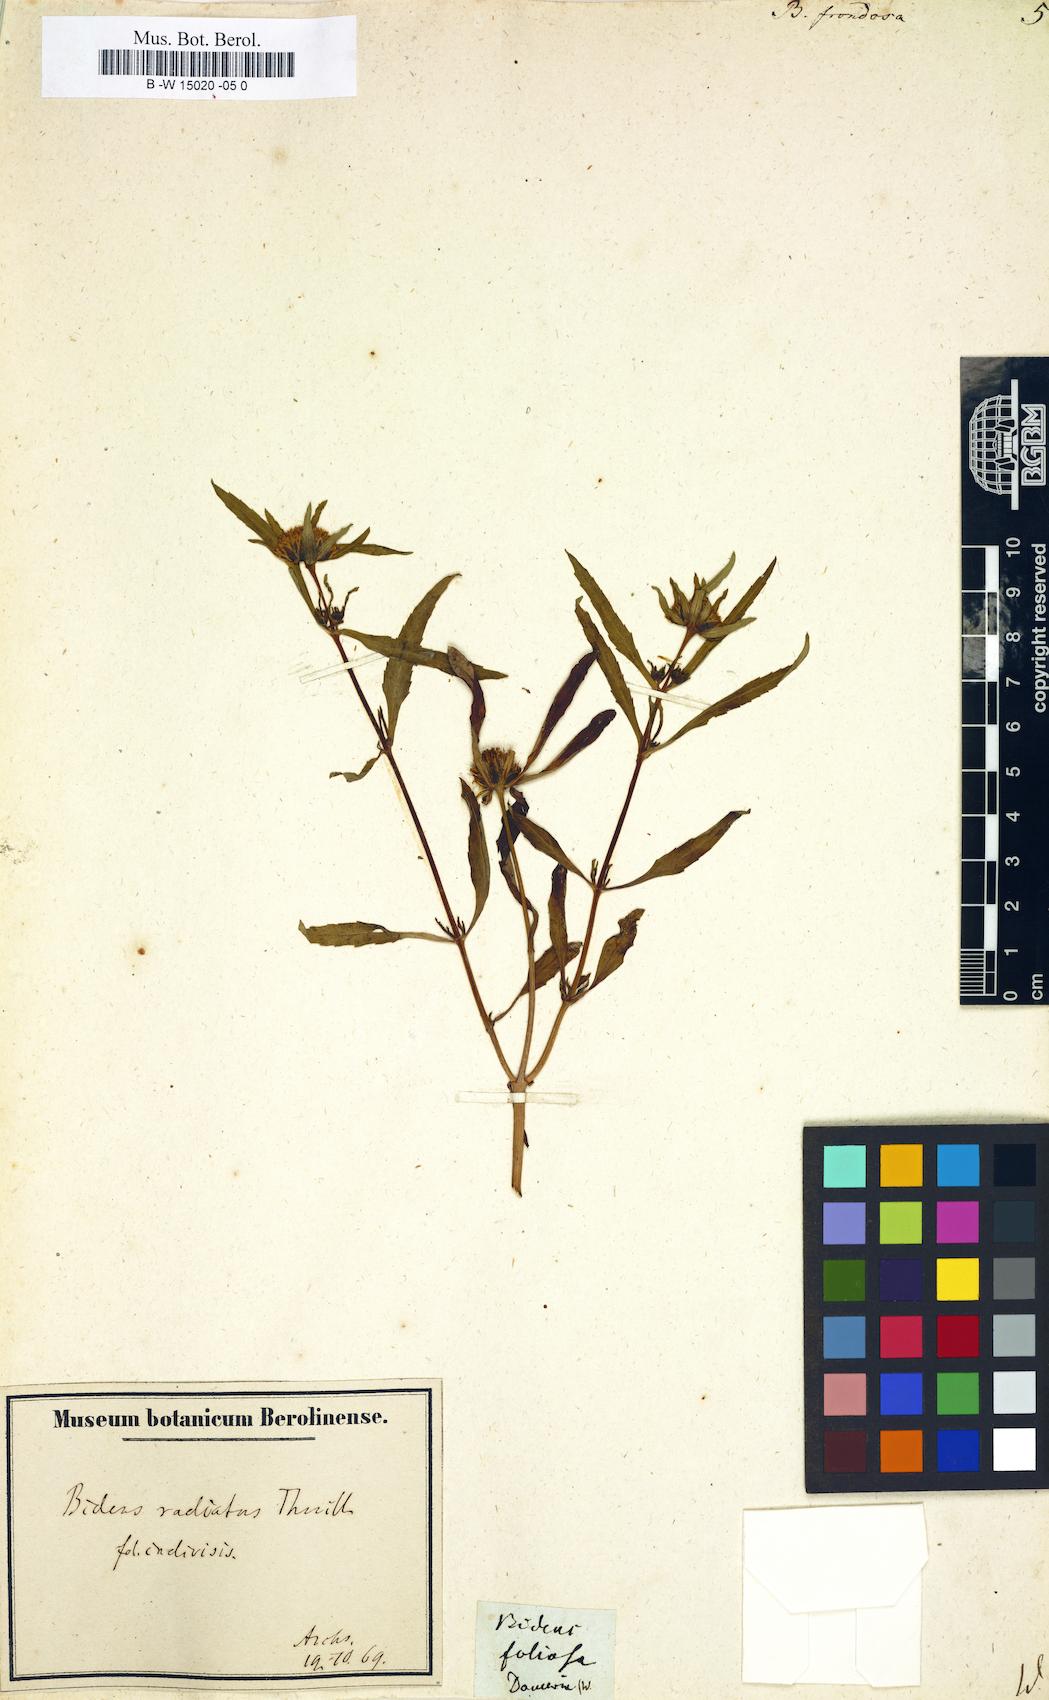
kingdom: Plantae
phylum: Tracheophyta
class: Magnoliopsida
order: Asterales
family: Asteraceae
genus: Bidens
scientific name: Bidens frondosa
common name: Beggarticks
